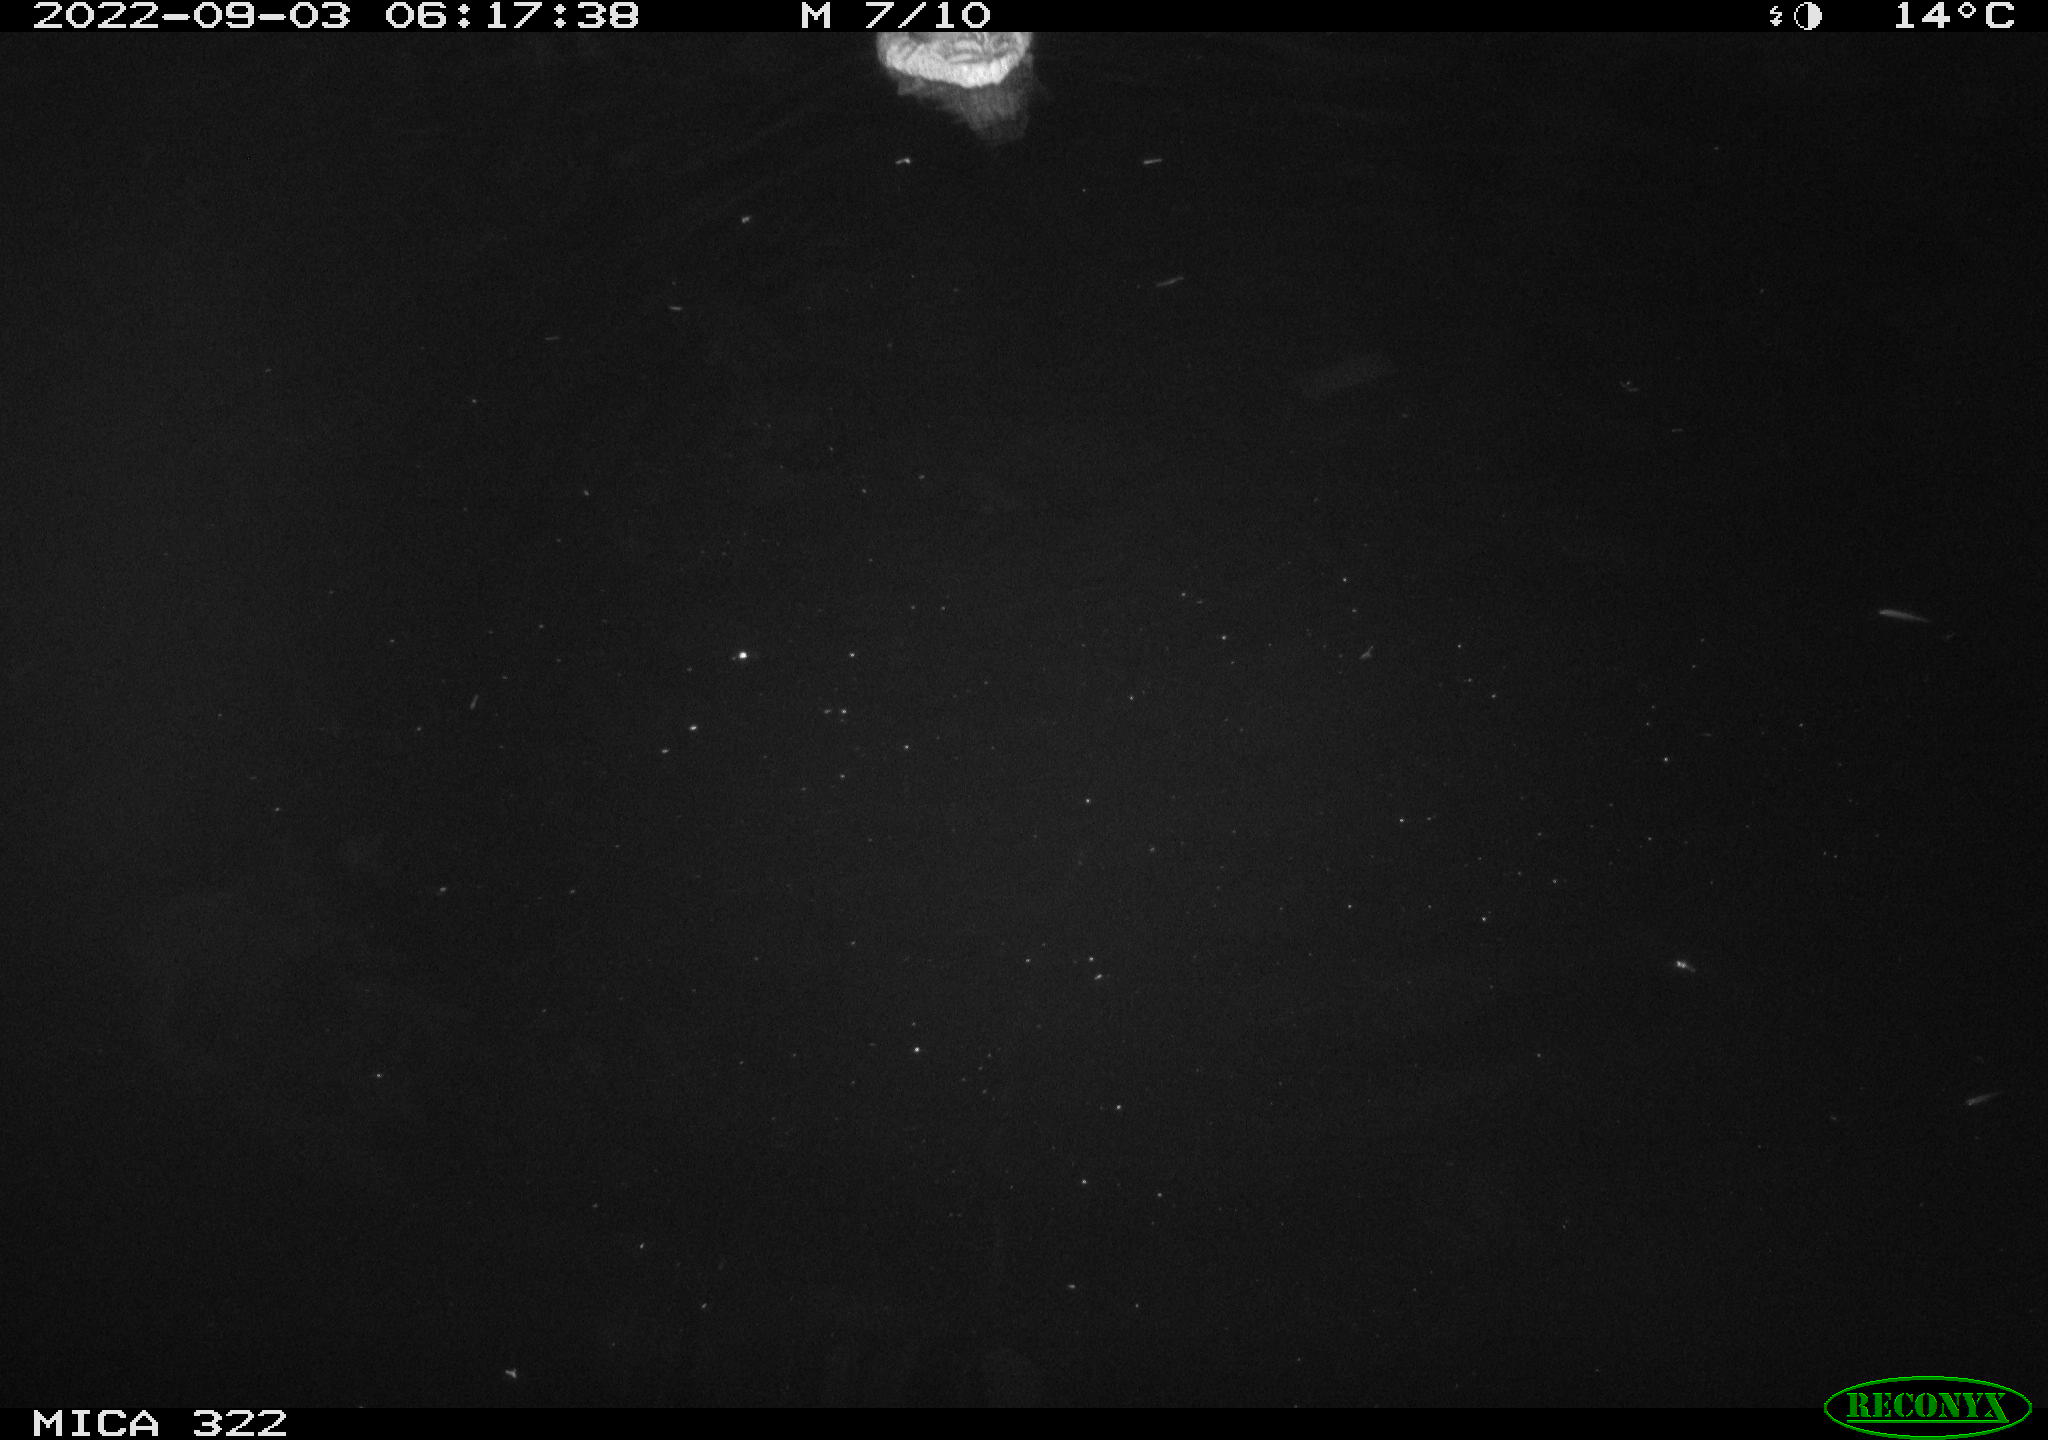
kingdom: Animalia
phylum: Chordata
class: Aves
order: Anseriformes
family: Anatidae
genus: Mareca
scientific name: Mareca strepera
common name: Gadwall
